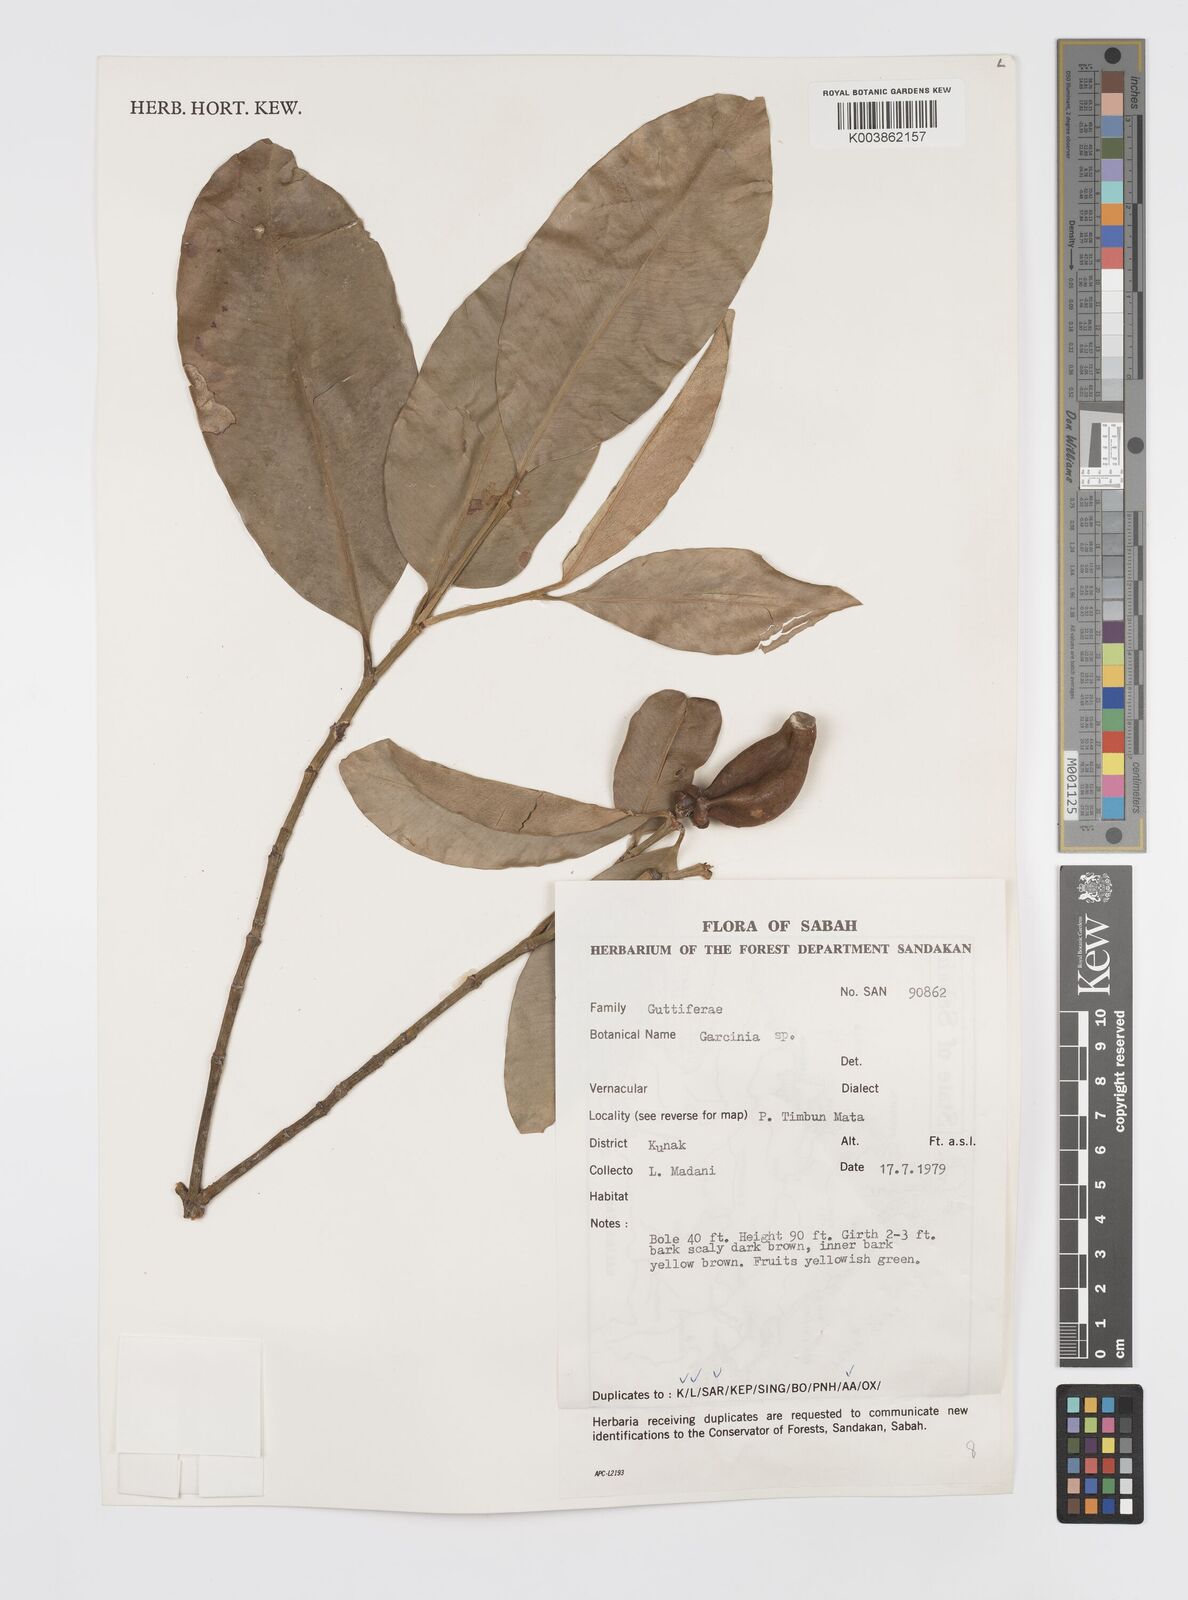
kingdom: Plantae
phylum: Tracheophyta
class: Magnoliopsida
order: Malpighiales
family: Clusiaceae
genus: Garcinia
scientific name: Garcinia
